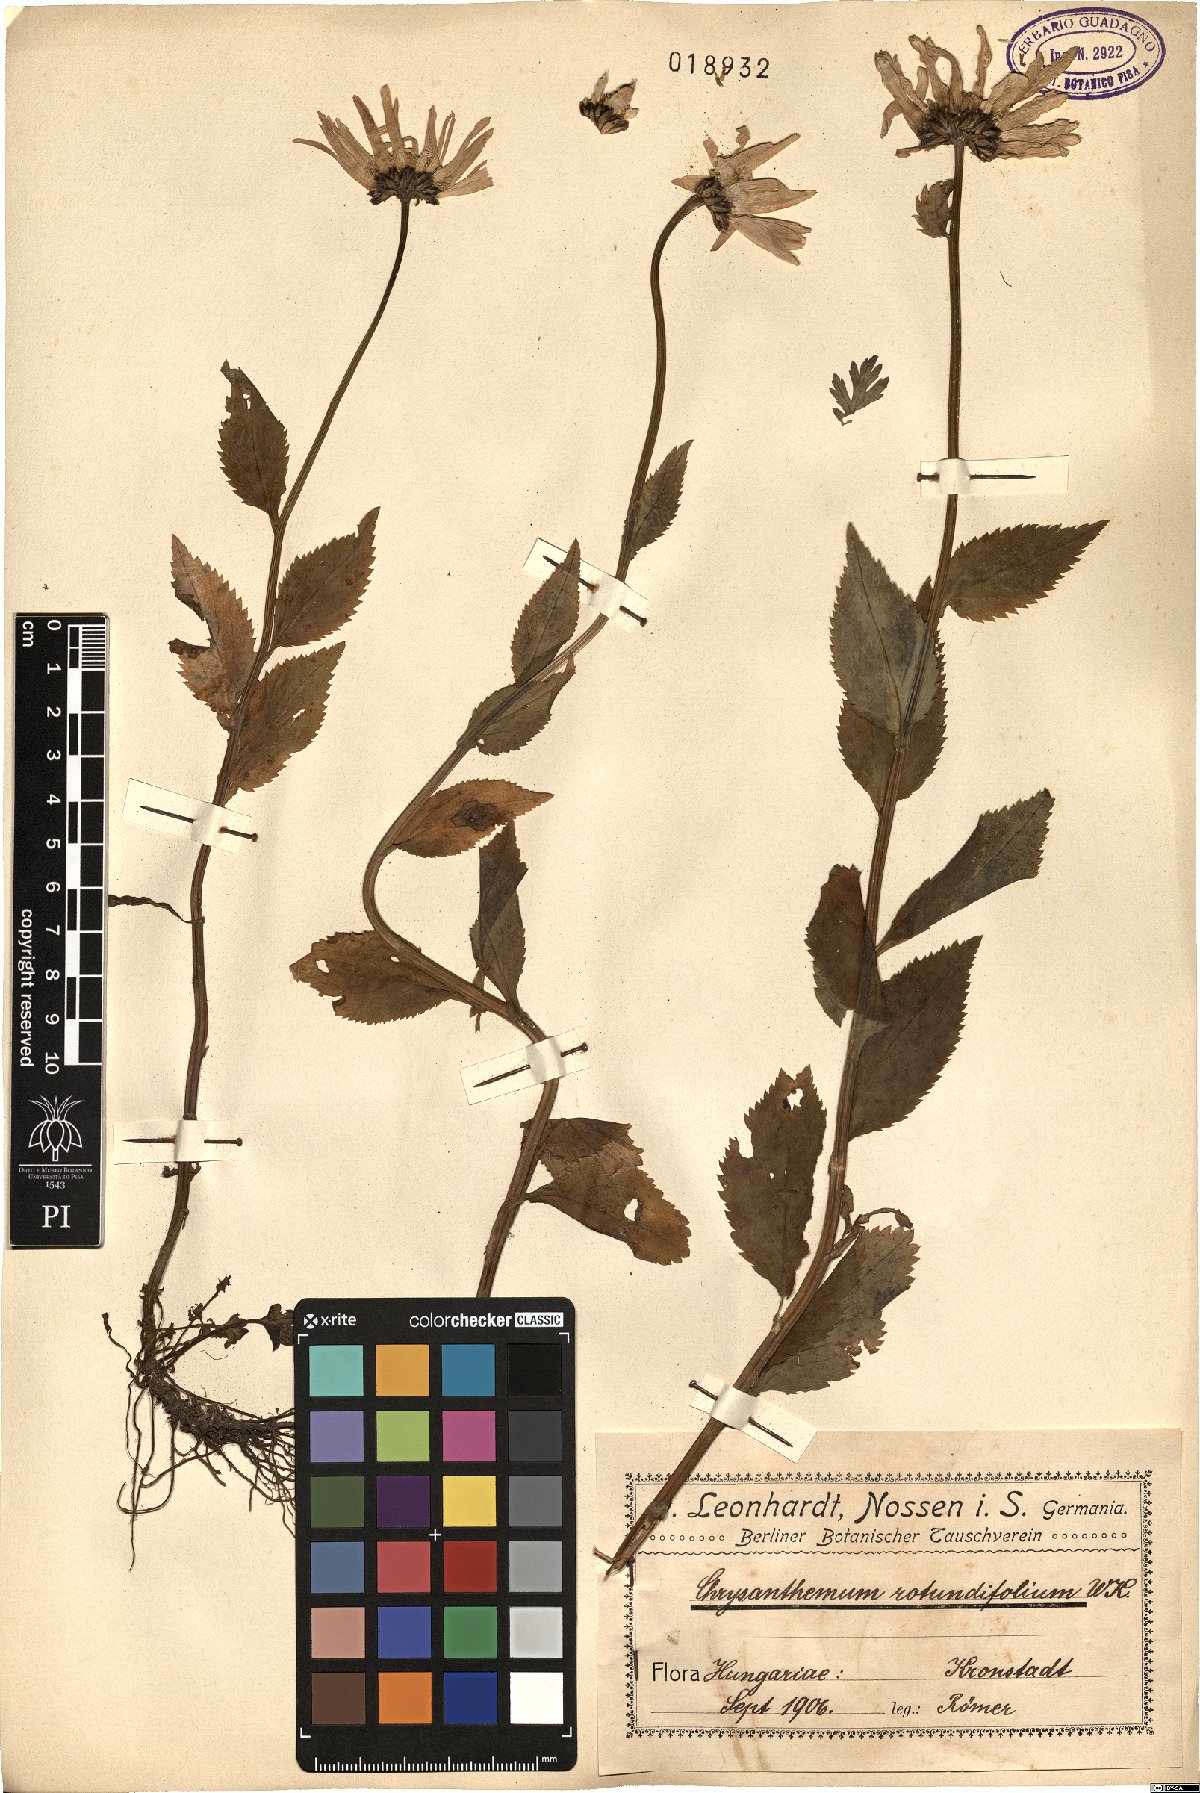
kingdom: Plantae
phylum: Tracheophyta
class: Magnoliopsida
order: Asterales
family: Asteraceae
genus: Leucanthemum
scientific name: Leucanthemum rotundifolium
